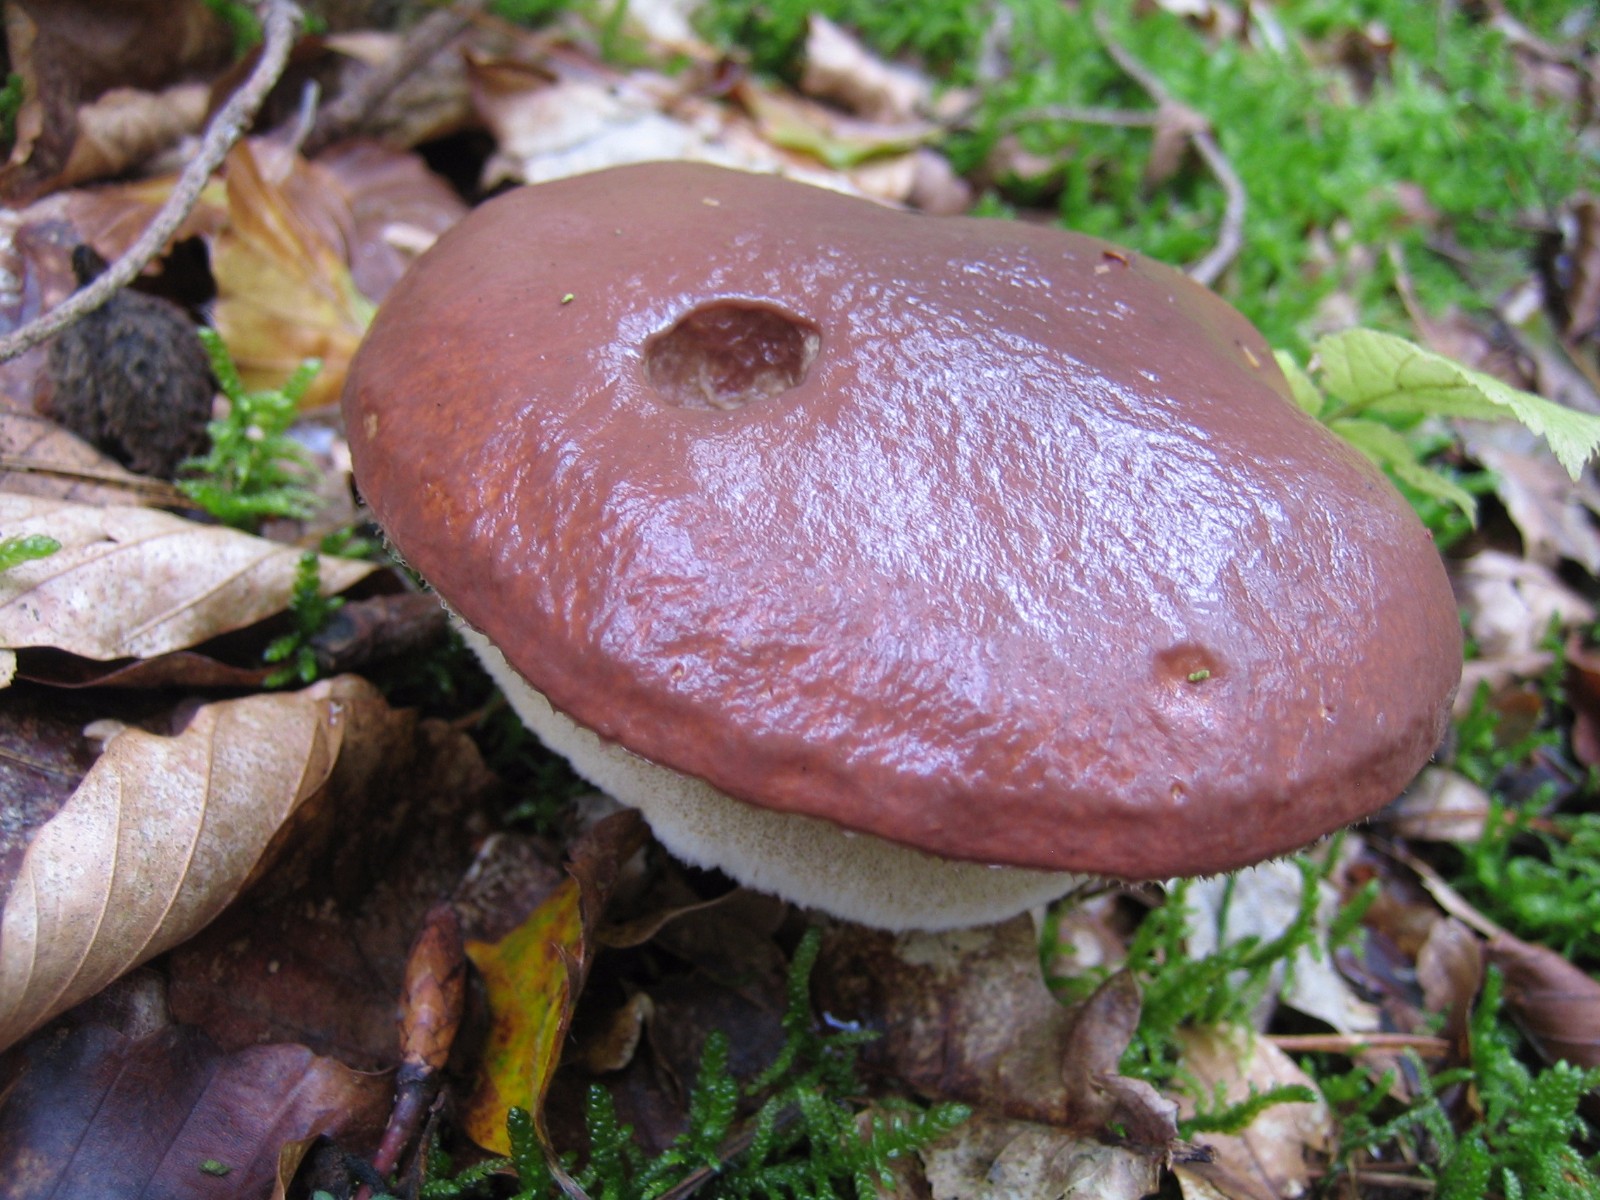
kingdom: Fungi
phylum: Basidiomycota
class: Agaricomycetes
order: Boletales
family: Suillaceae
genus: Suillus
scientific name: Suillus luteus
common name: brungul slimrørhat
